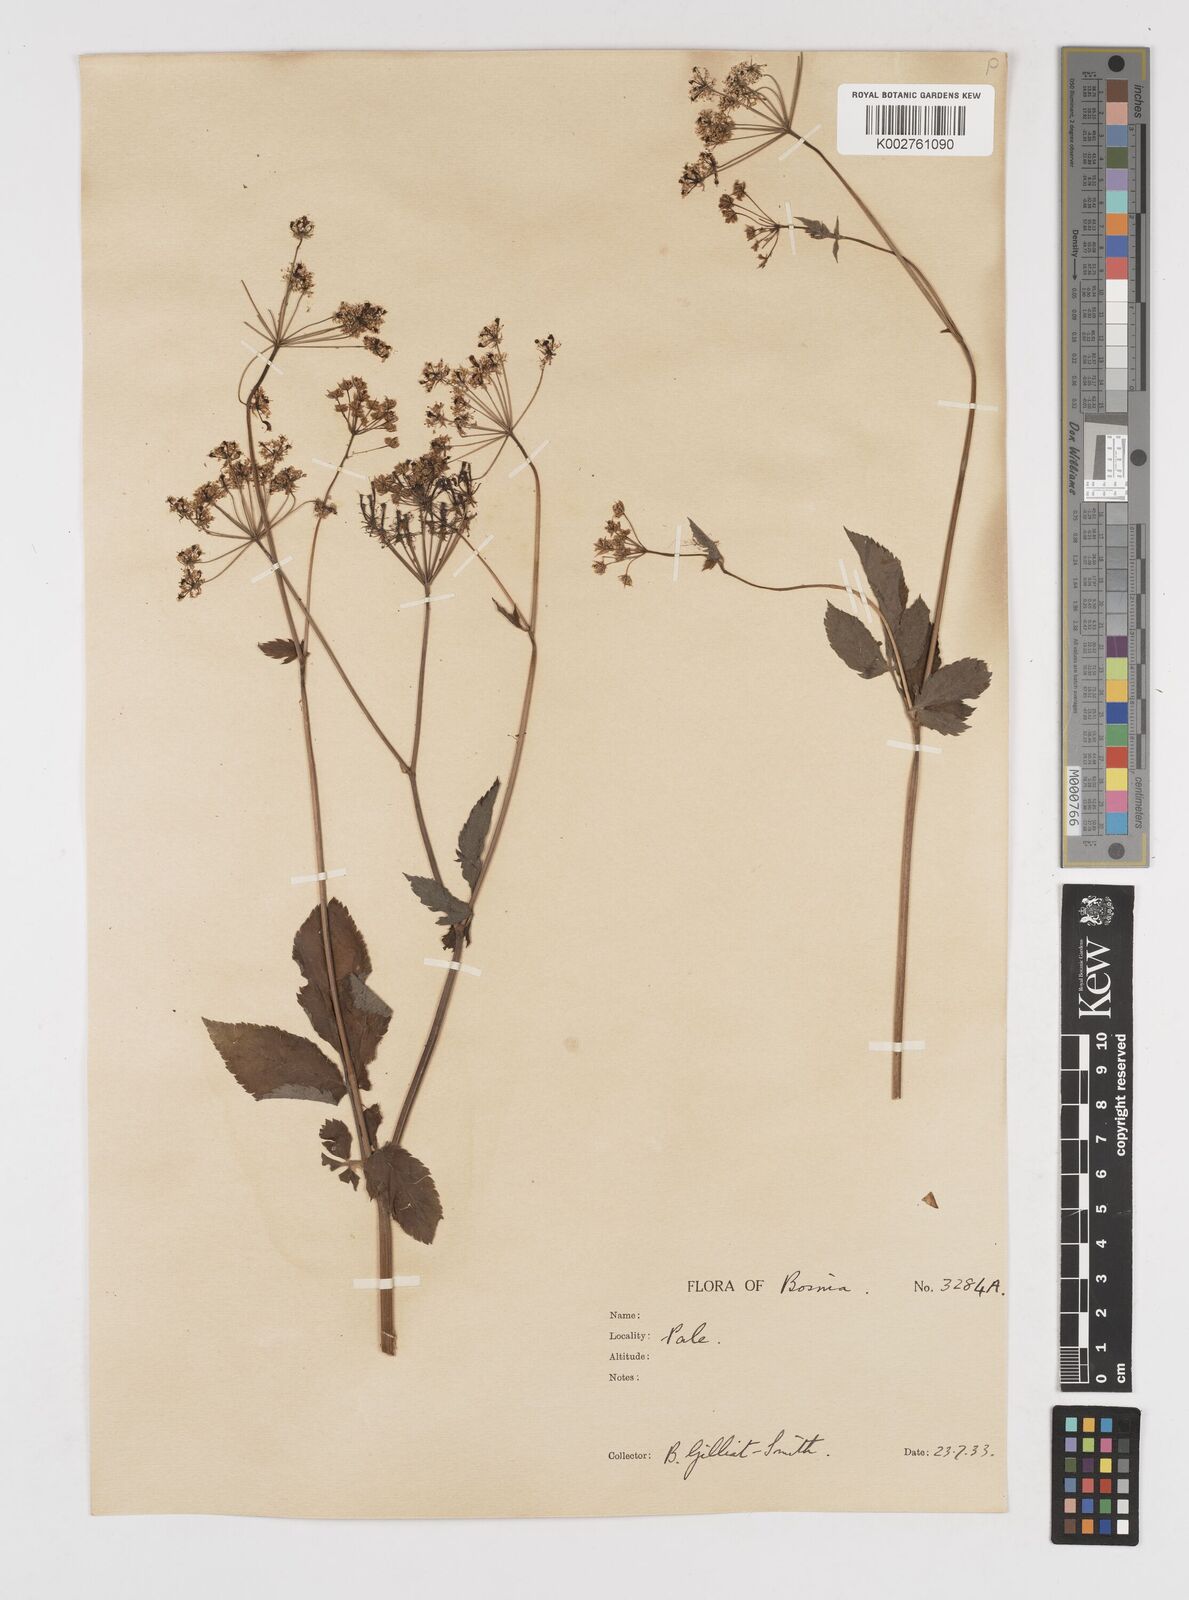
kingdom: Plantae
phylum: Tracheophyta
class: Magnoliopsida
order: Apiales
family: Apiaceae
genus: Chaerophyllum
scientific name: Chaerophyllum aromaticum
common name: Broadleaf chervil
